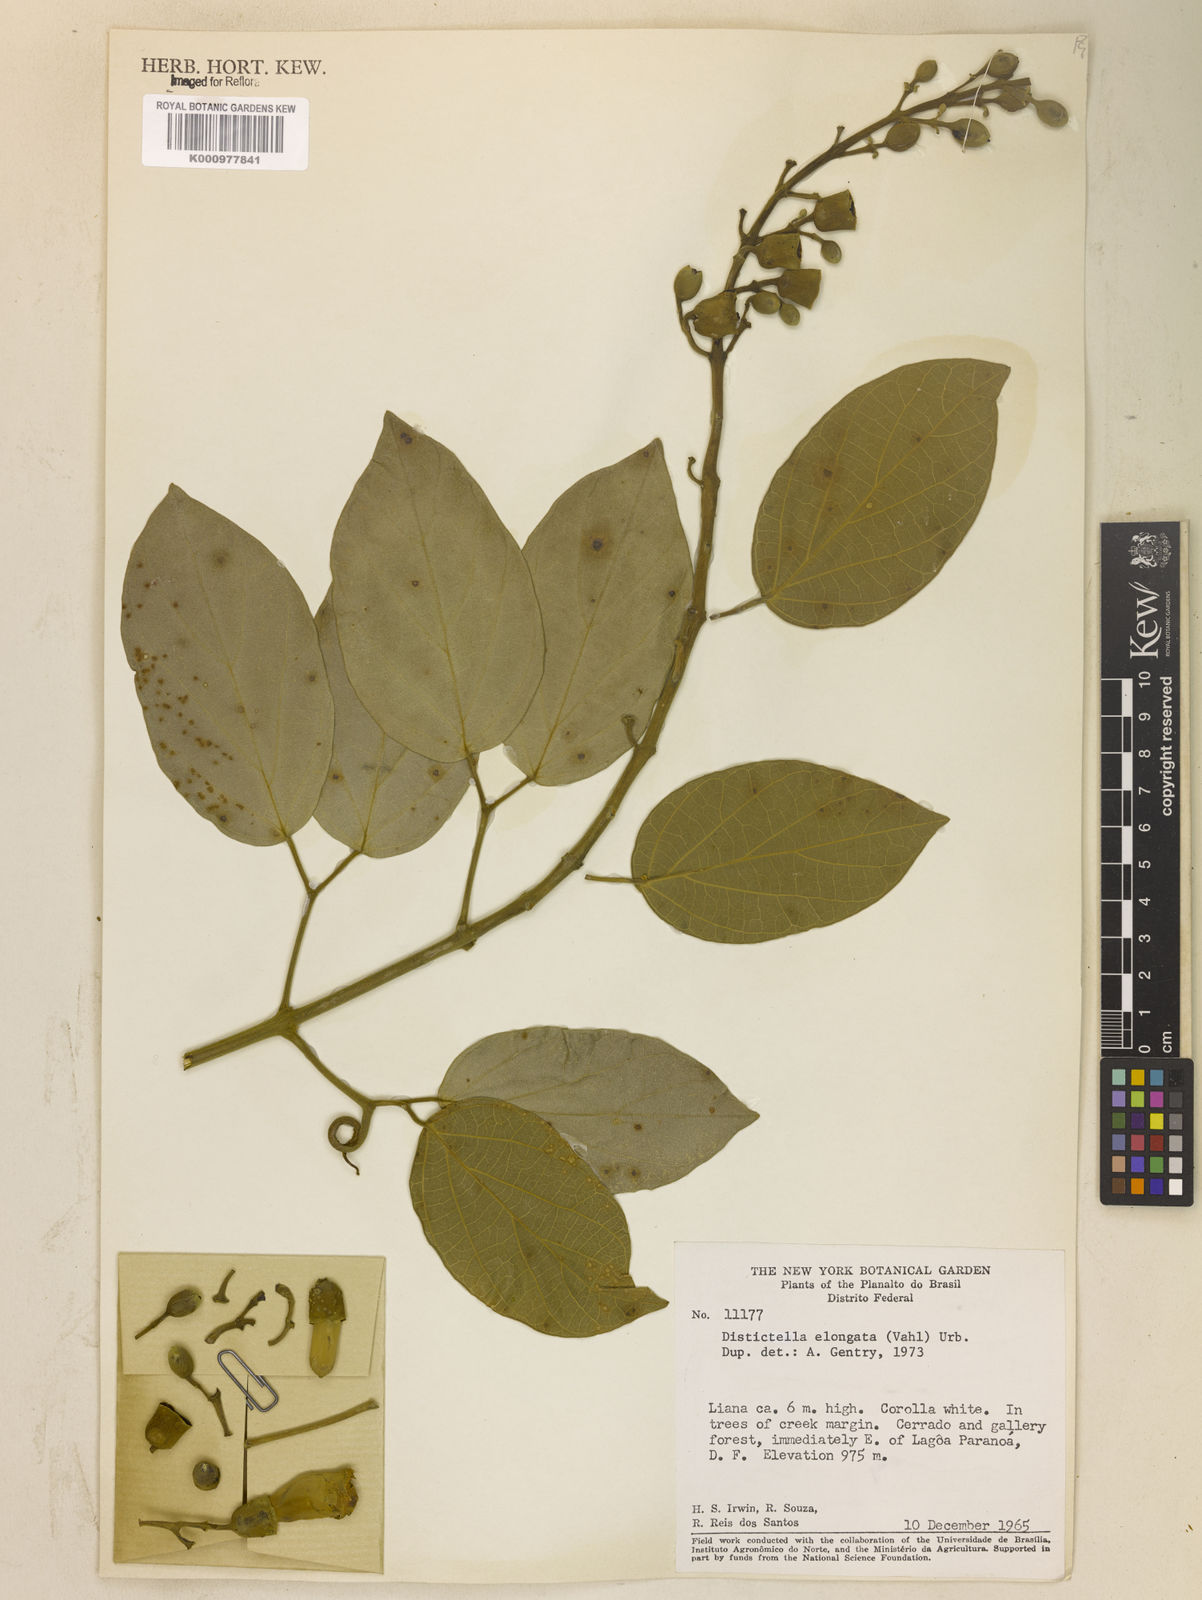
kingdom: Plantae
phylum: Tracheophyta
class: Magnoliopsida
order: Lamiales
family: Bignoniaceae
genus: Amphilophium
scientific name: Amphilophium elongatum
